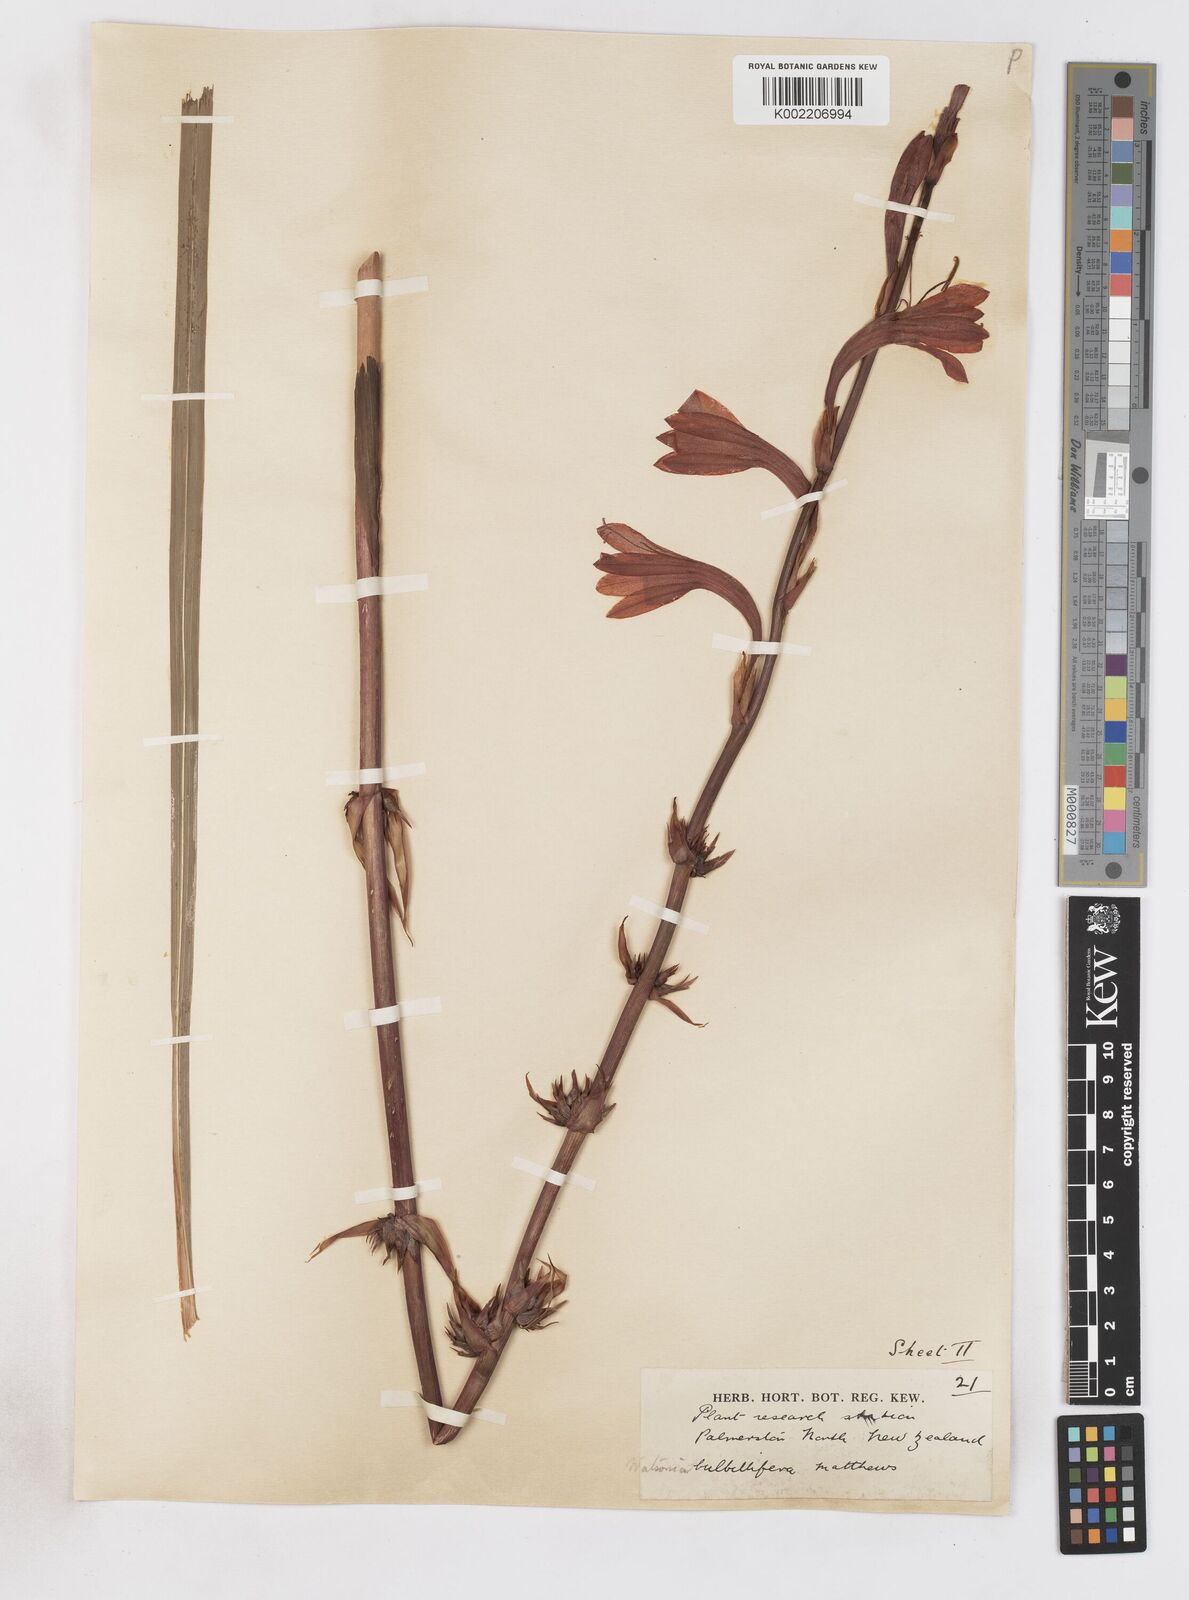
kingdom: Plantae
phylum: Tracheophyta
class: Liliopsida
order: Asparagales
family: Iridaceae
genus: Watsonia
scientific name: Watsonia meriana
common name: Bulbil bugle-lily
